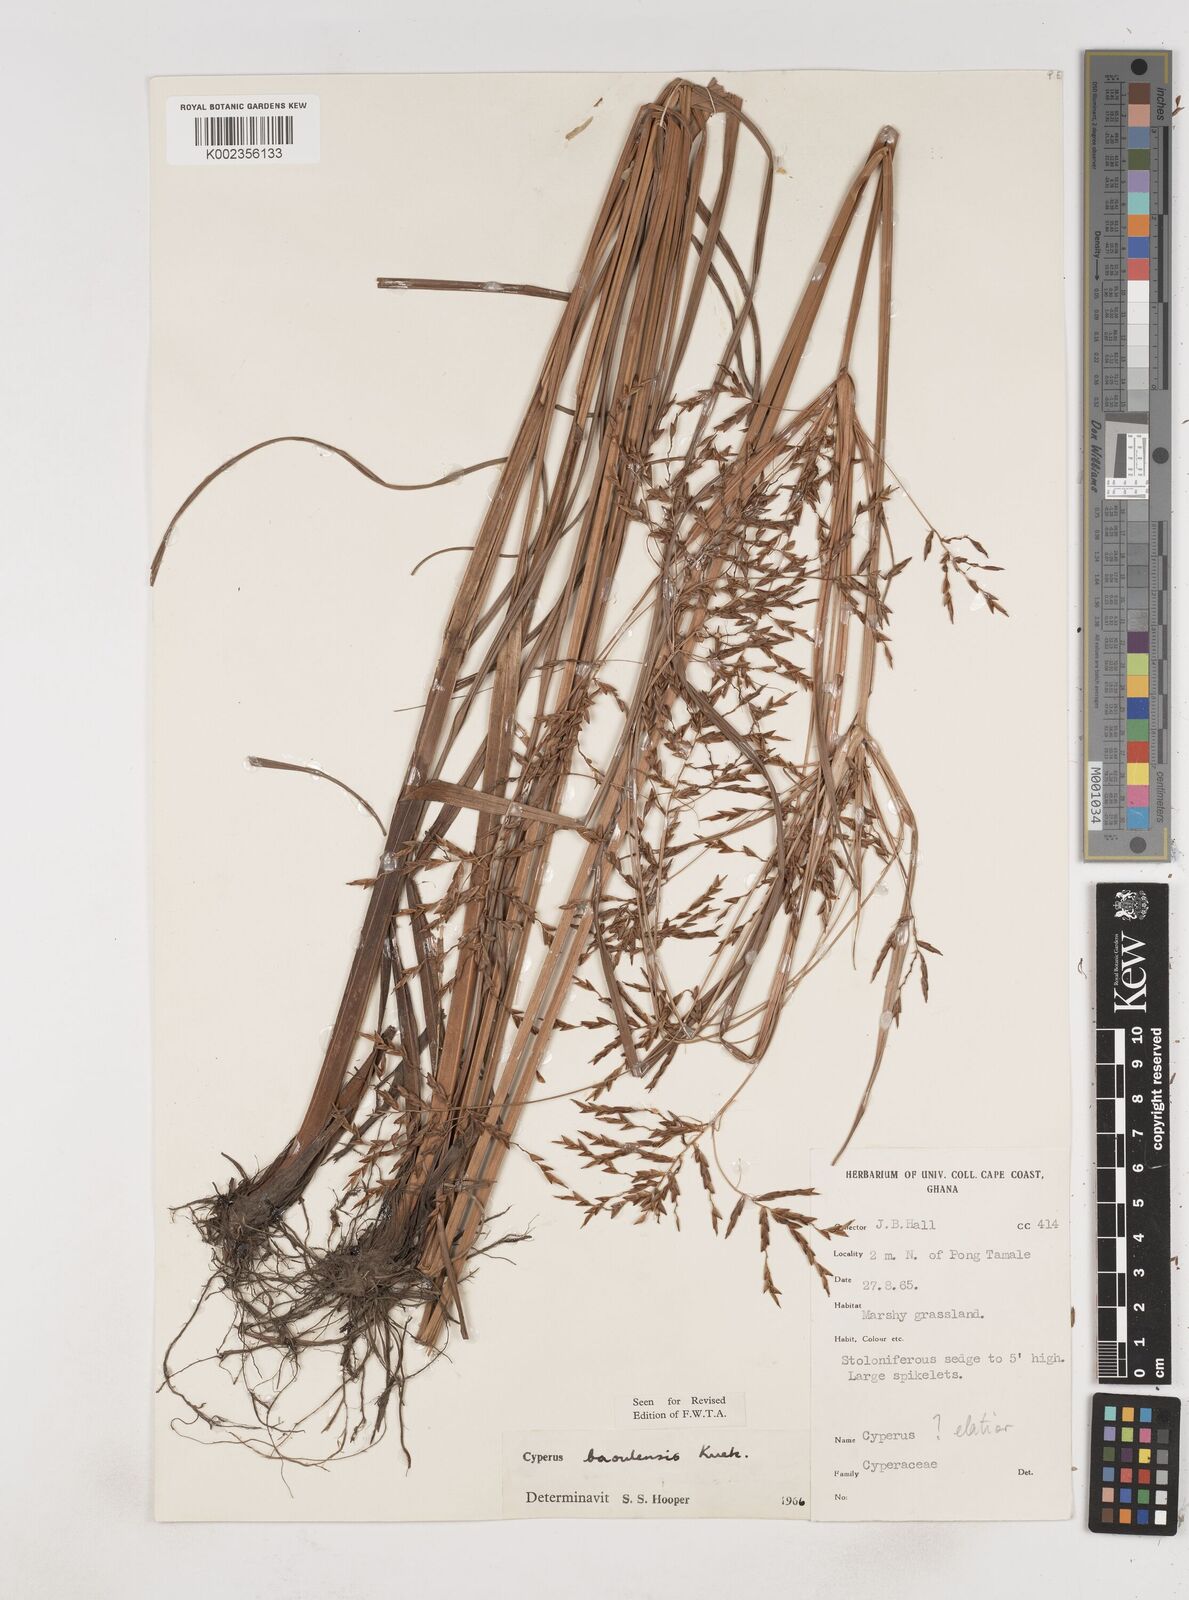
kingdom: Plantae
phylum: Tracheophyta
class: Liliopsida
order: Poales
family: Cyperaceae
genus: Cyperus
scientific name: Cyperus baoulensis
